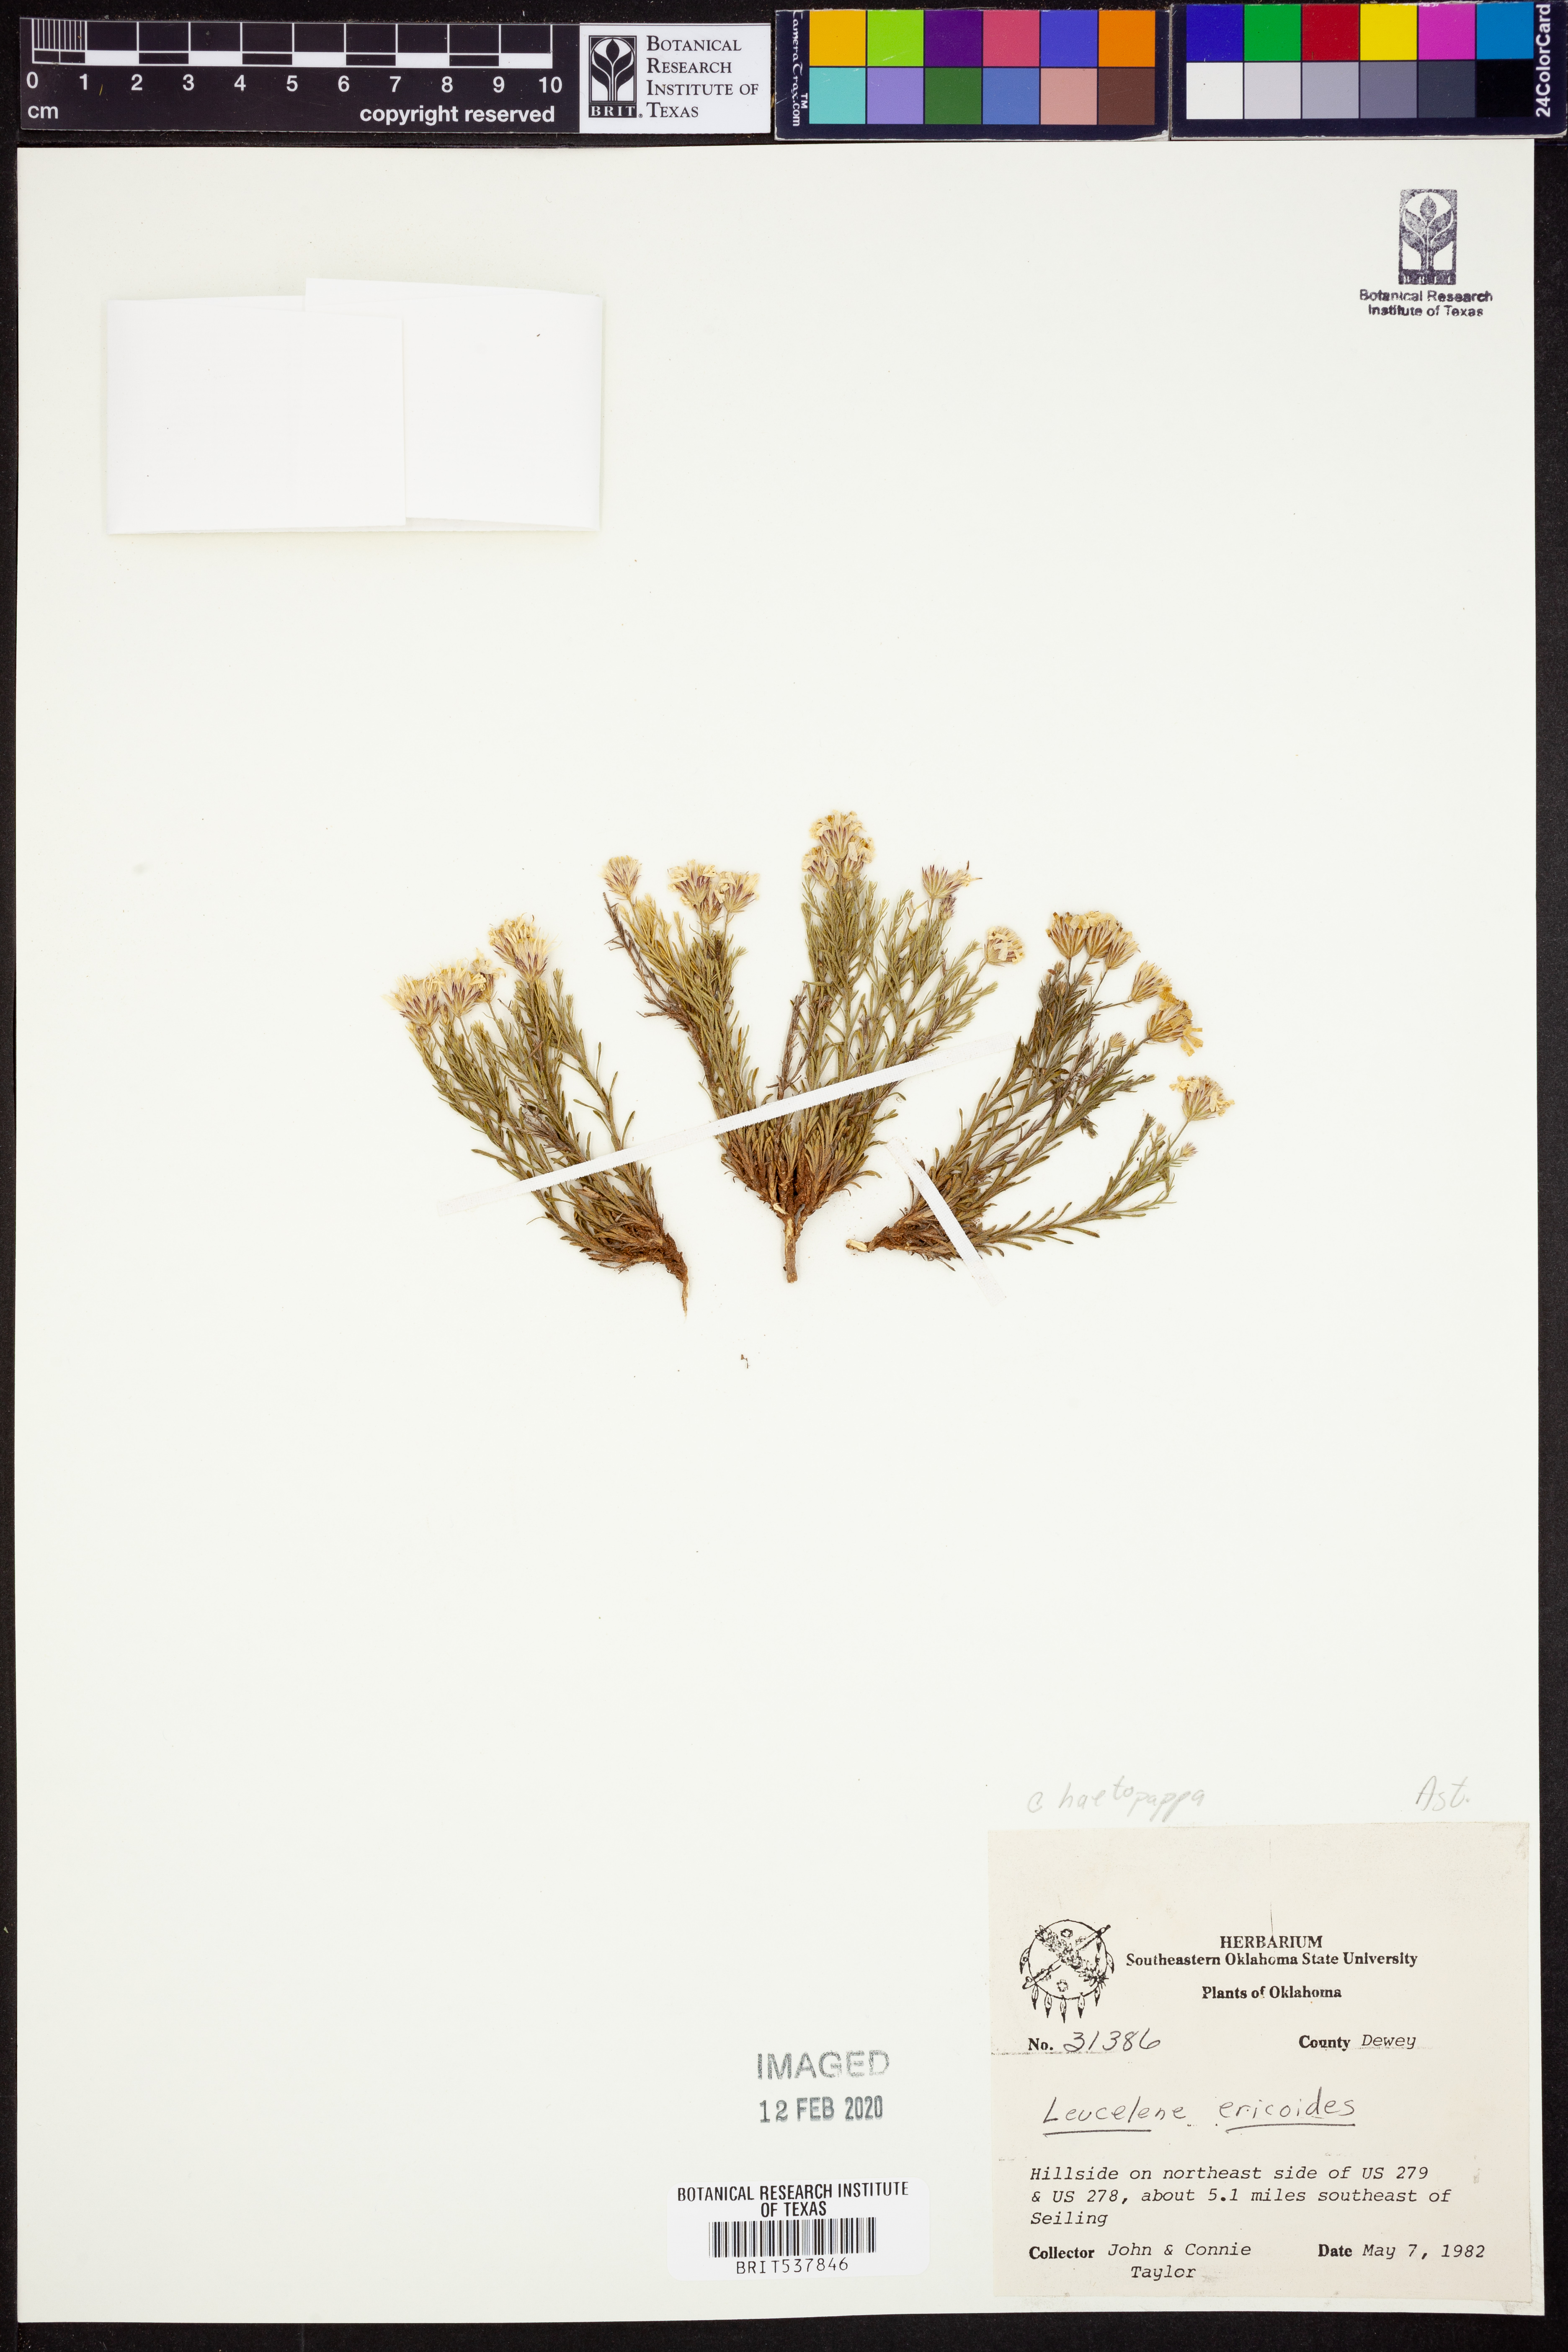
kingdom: Plantae
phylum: Tracheophyta
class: Magnoliopsida
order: Asterales
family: Asteraceae
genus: Chaetopappa
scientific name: Chaetopappa ericoides
